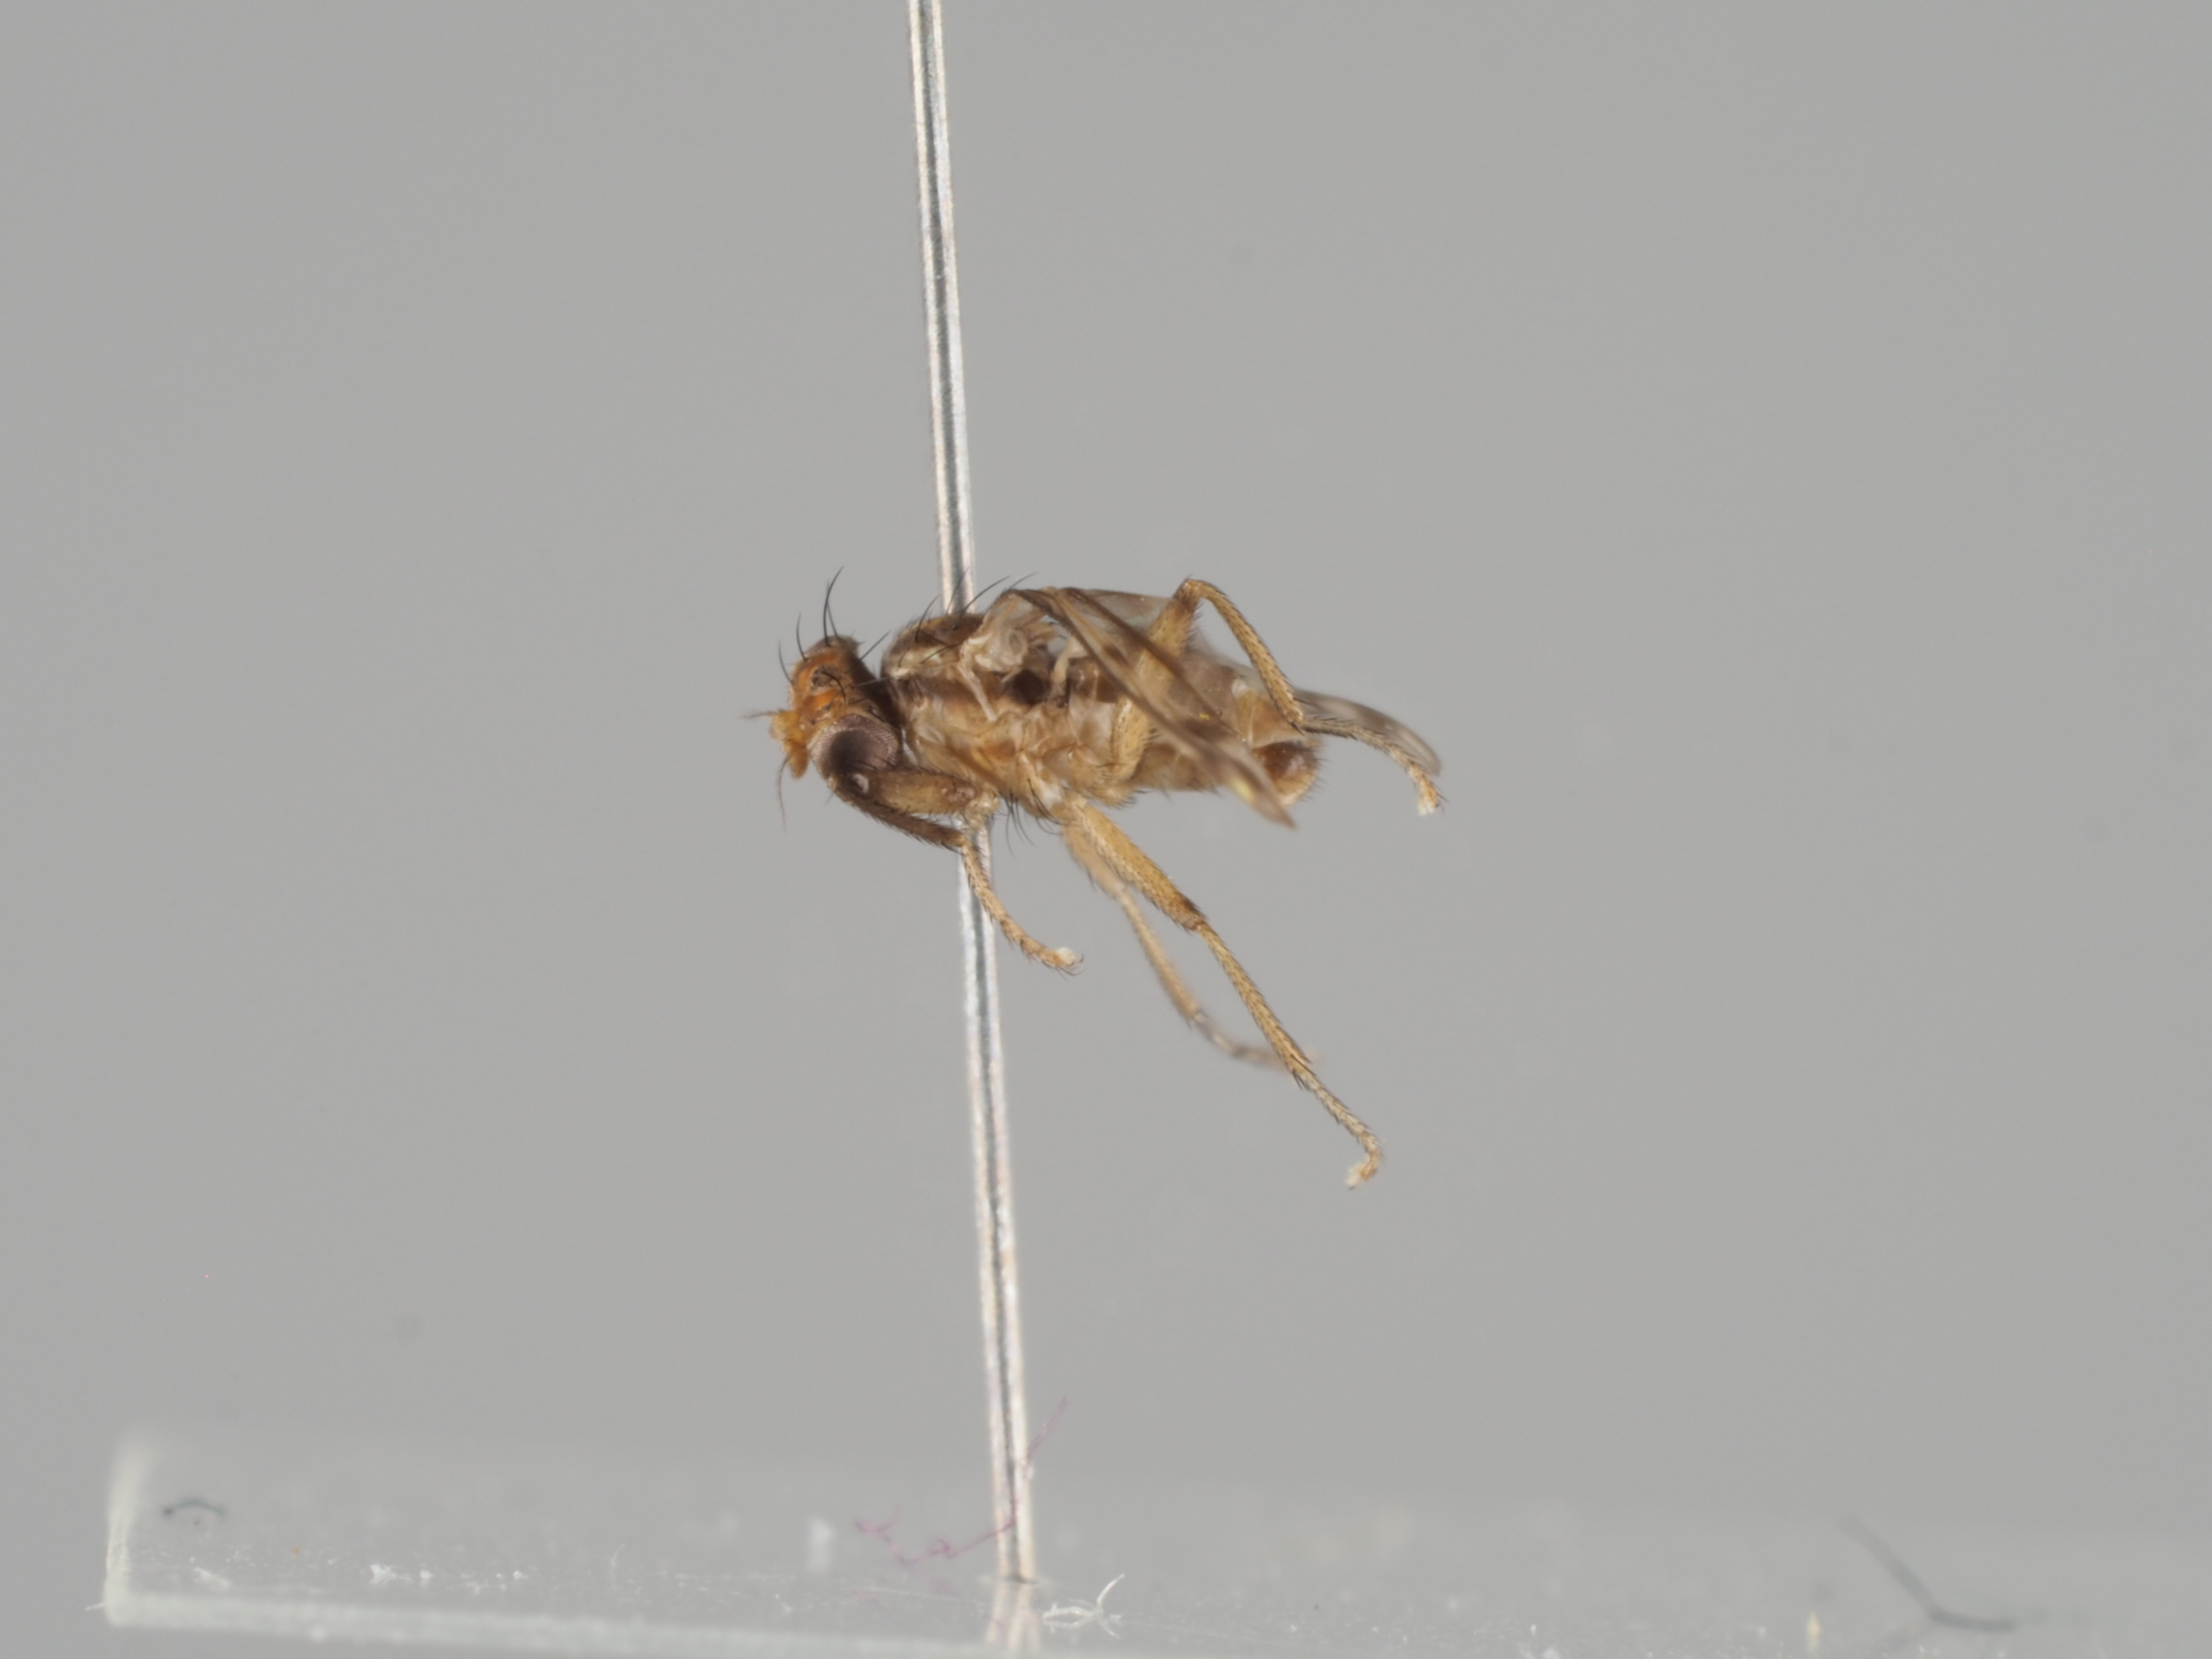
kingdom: Animalia
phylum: Arthropoda
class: Insecta
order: Diptera
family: Sciomyzidae
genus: Colobaea
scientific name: Colobaea distincta
